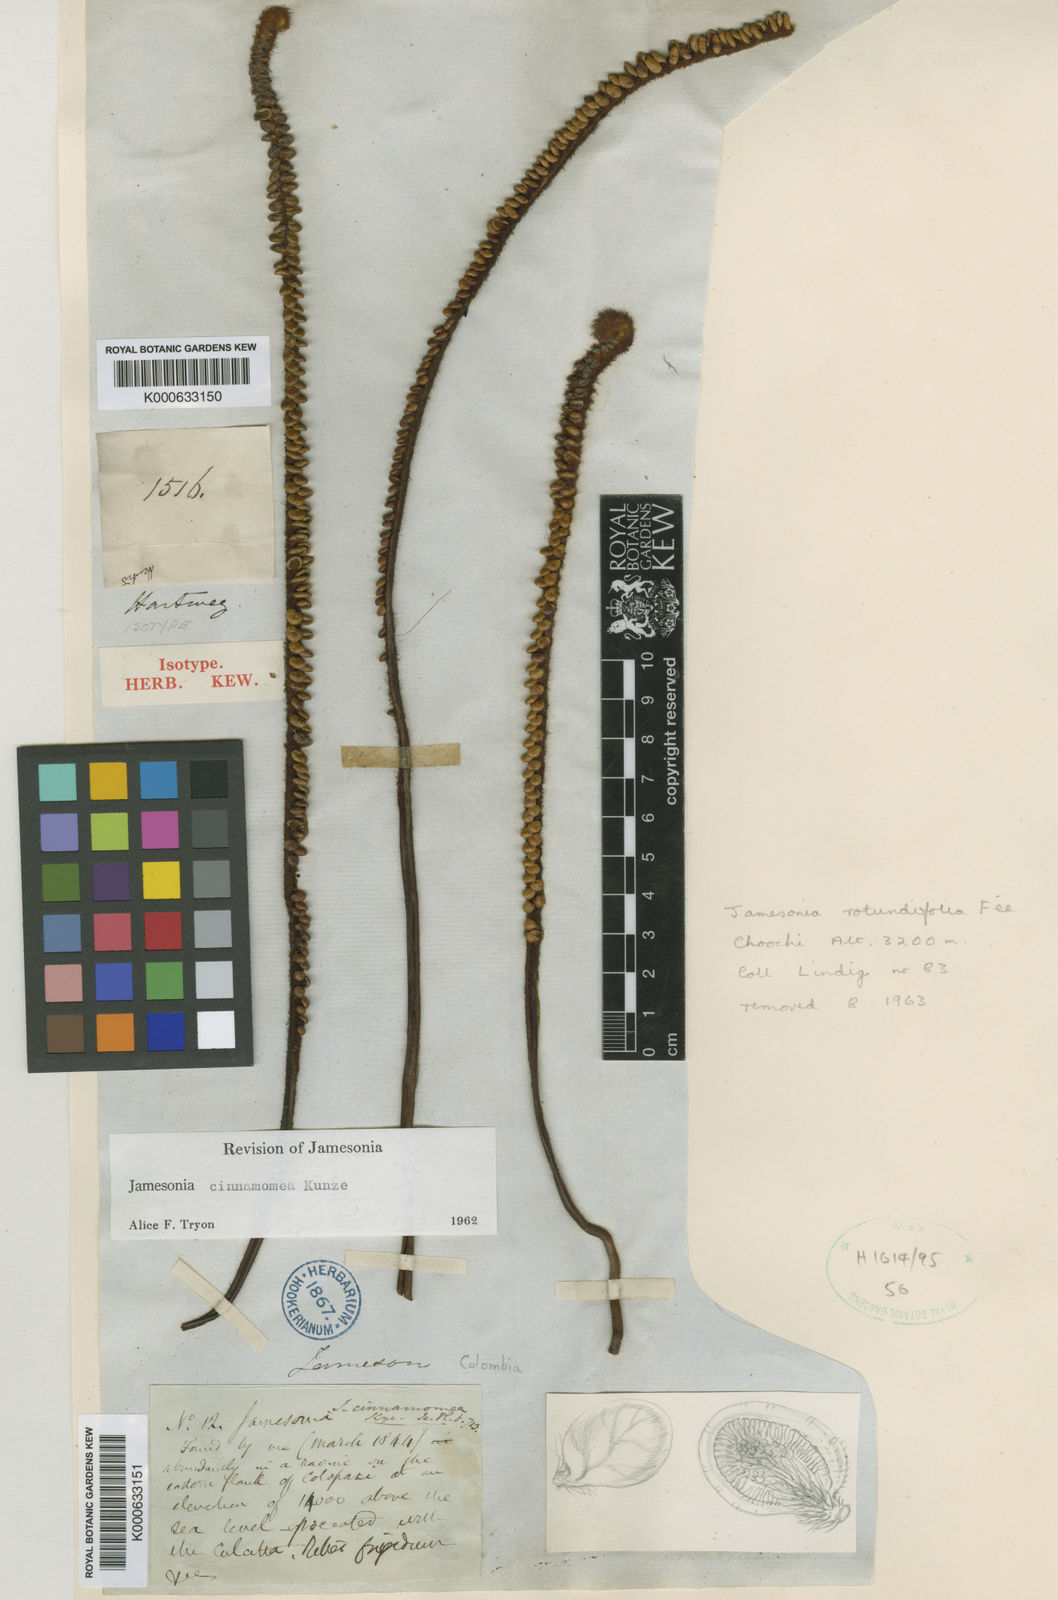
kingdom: Plantae
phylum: Tracheophyta
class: Polypodiopsida
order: Polypodiales
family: Pteridaceae
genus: Jamesonia
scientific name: Jamesonia cinnamomea
